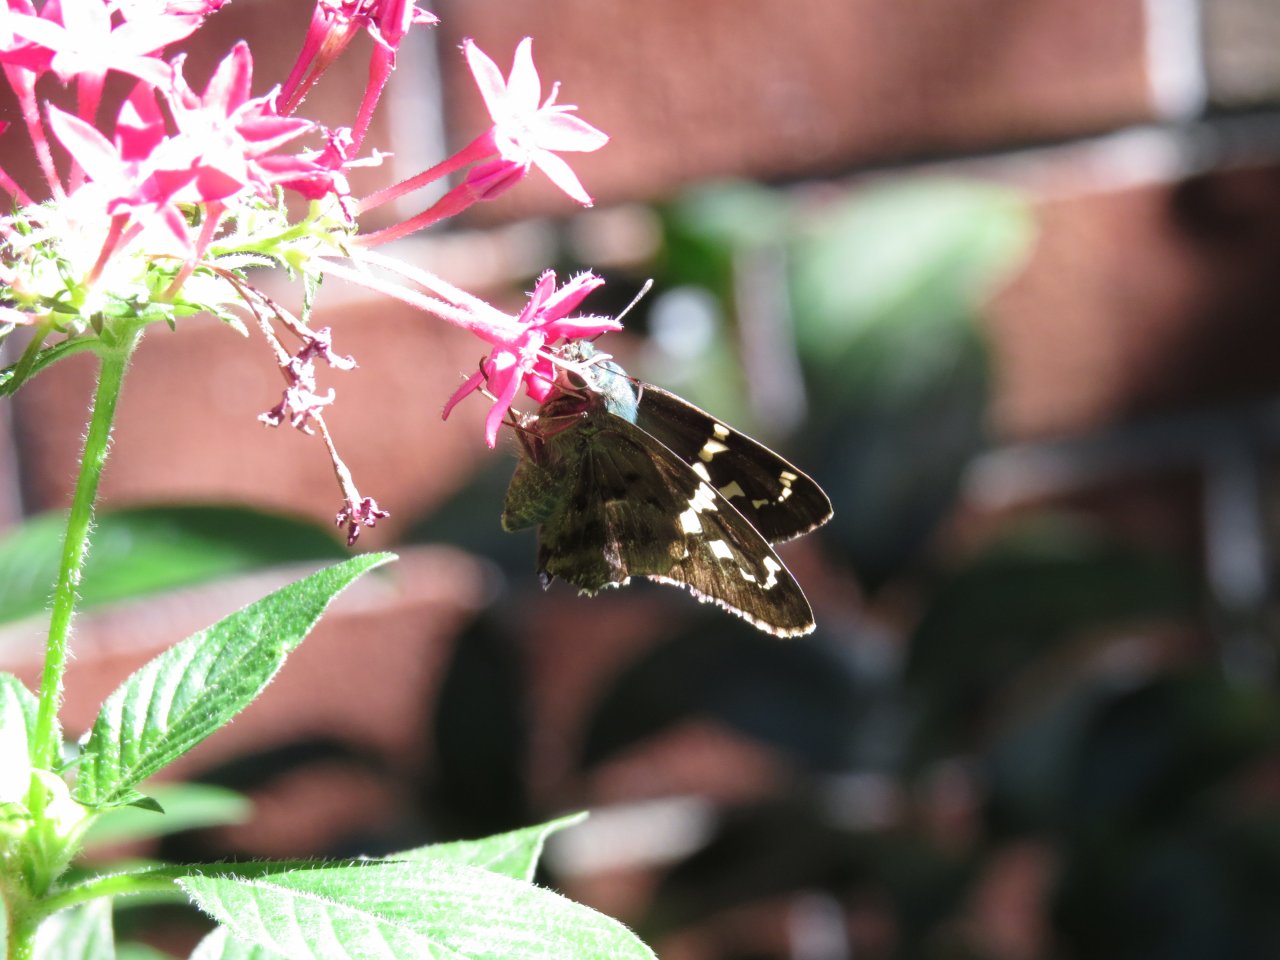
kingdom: Animalia
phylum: Arthropoda
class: Insecta
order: Lepidoptera
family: Hesperiidae
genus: Urbanus
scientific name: Urbanus proteus
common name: Long-tailed Skipper
